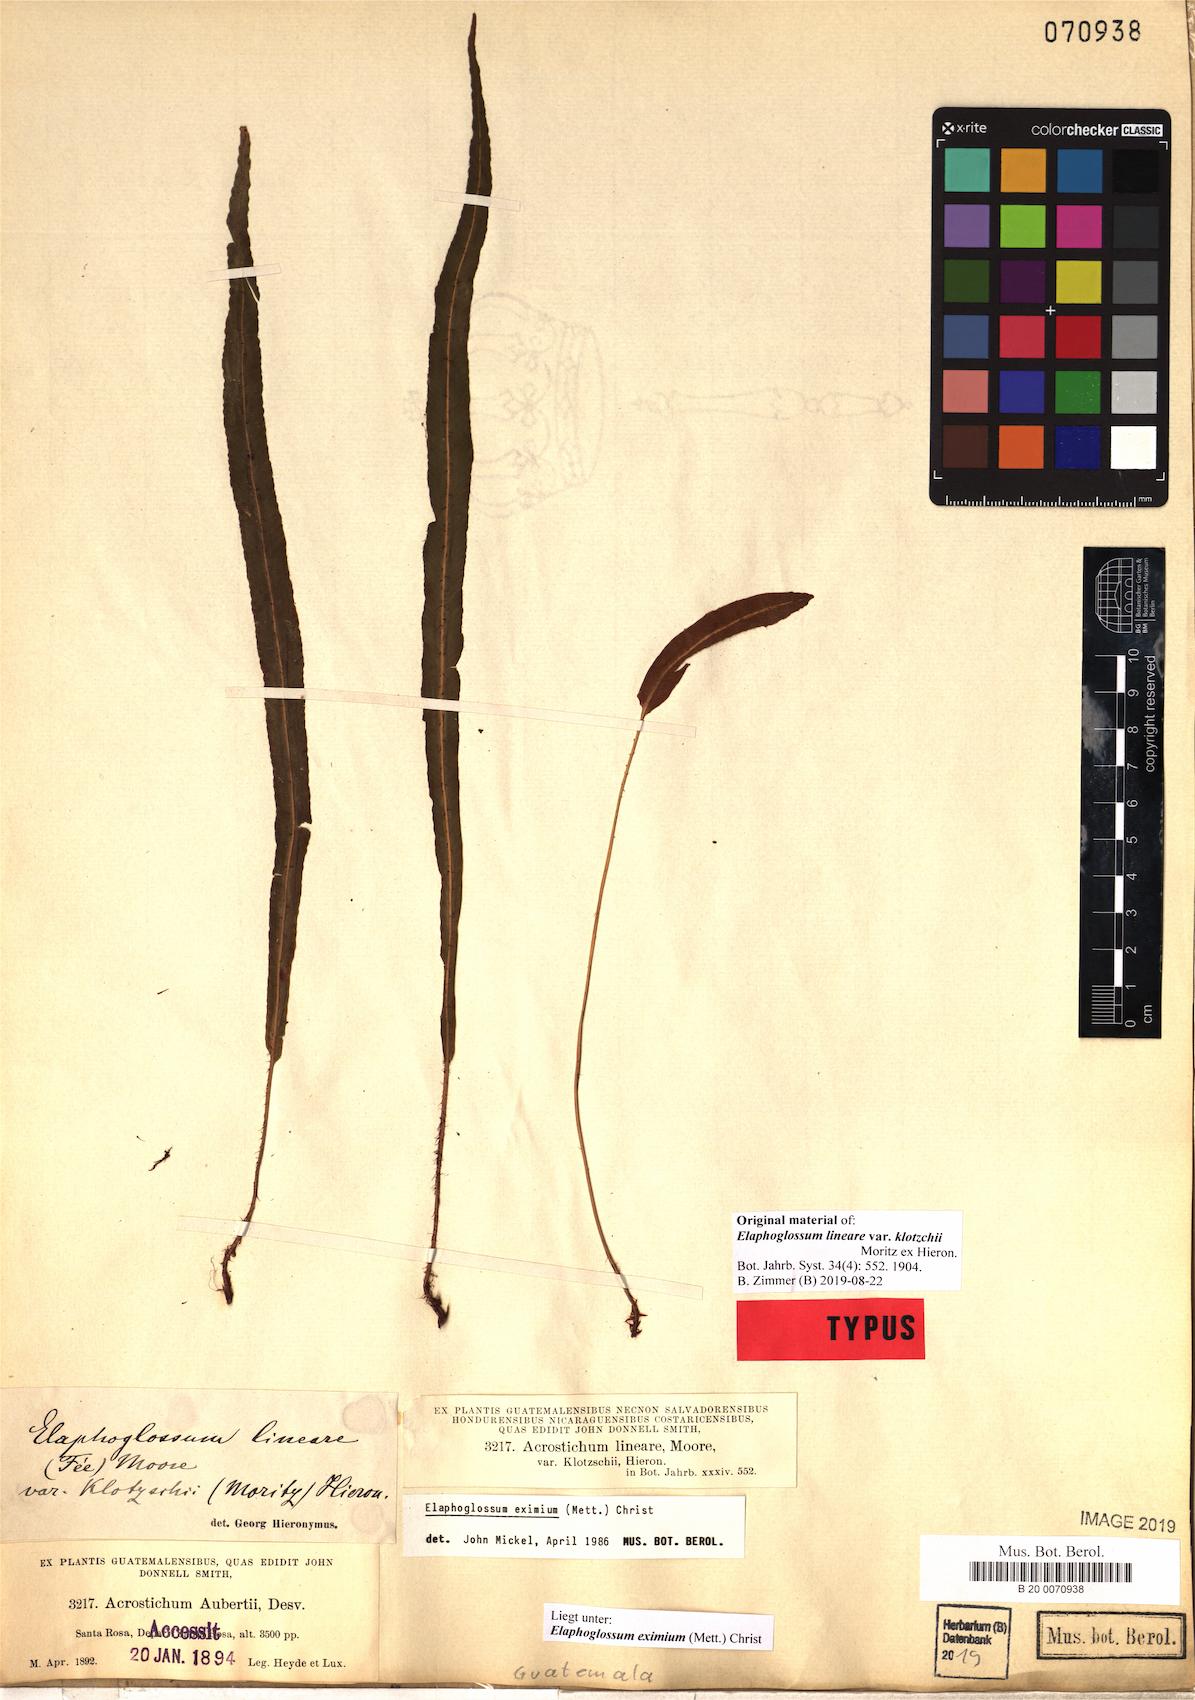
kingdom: Plantae
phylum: Tracheophyta
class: Polypodiopsida
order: Polypodiales
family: Dryopteridaceae
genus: Elaphoglossum
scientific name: Elaphoglossum eximium
